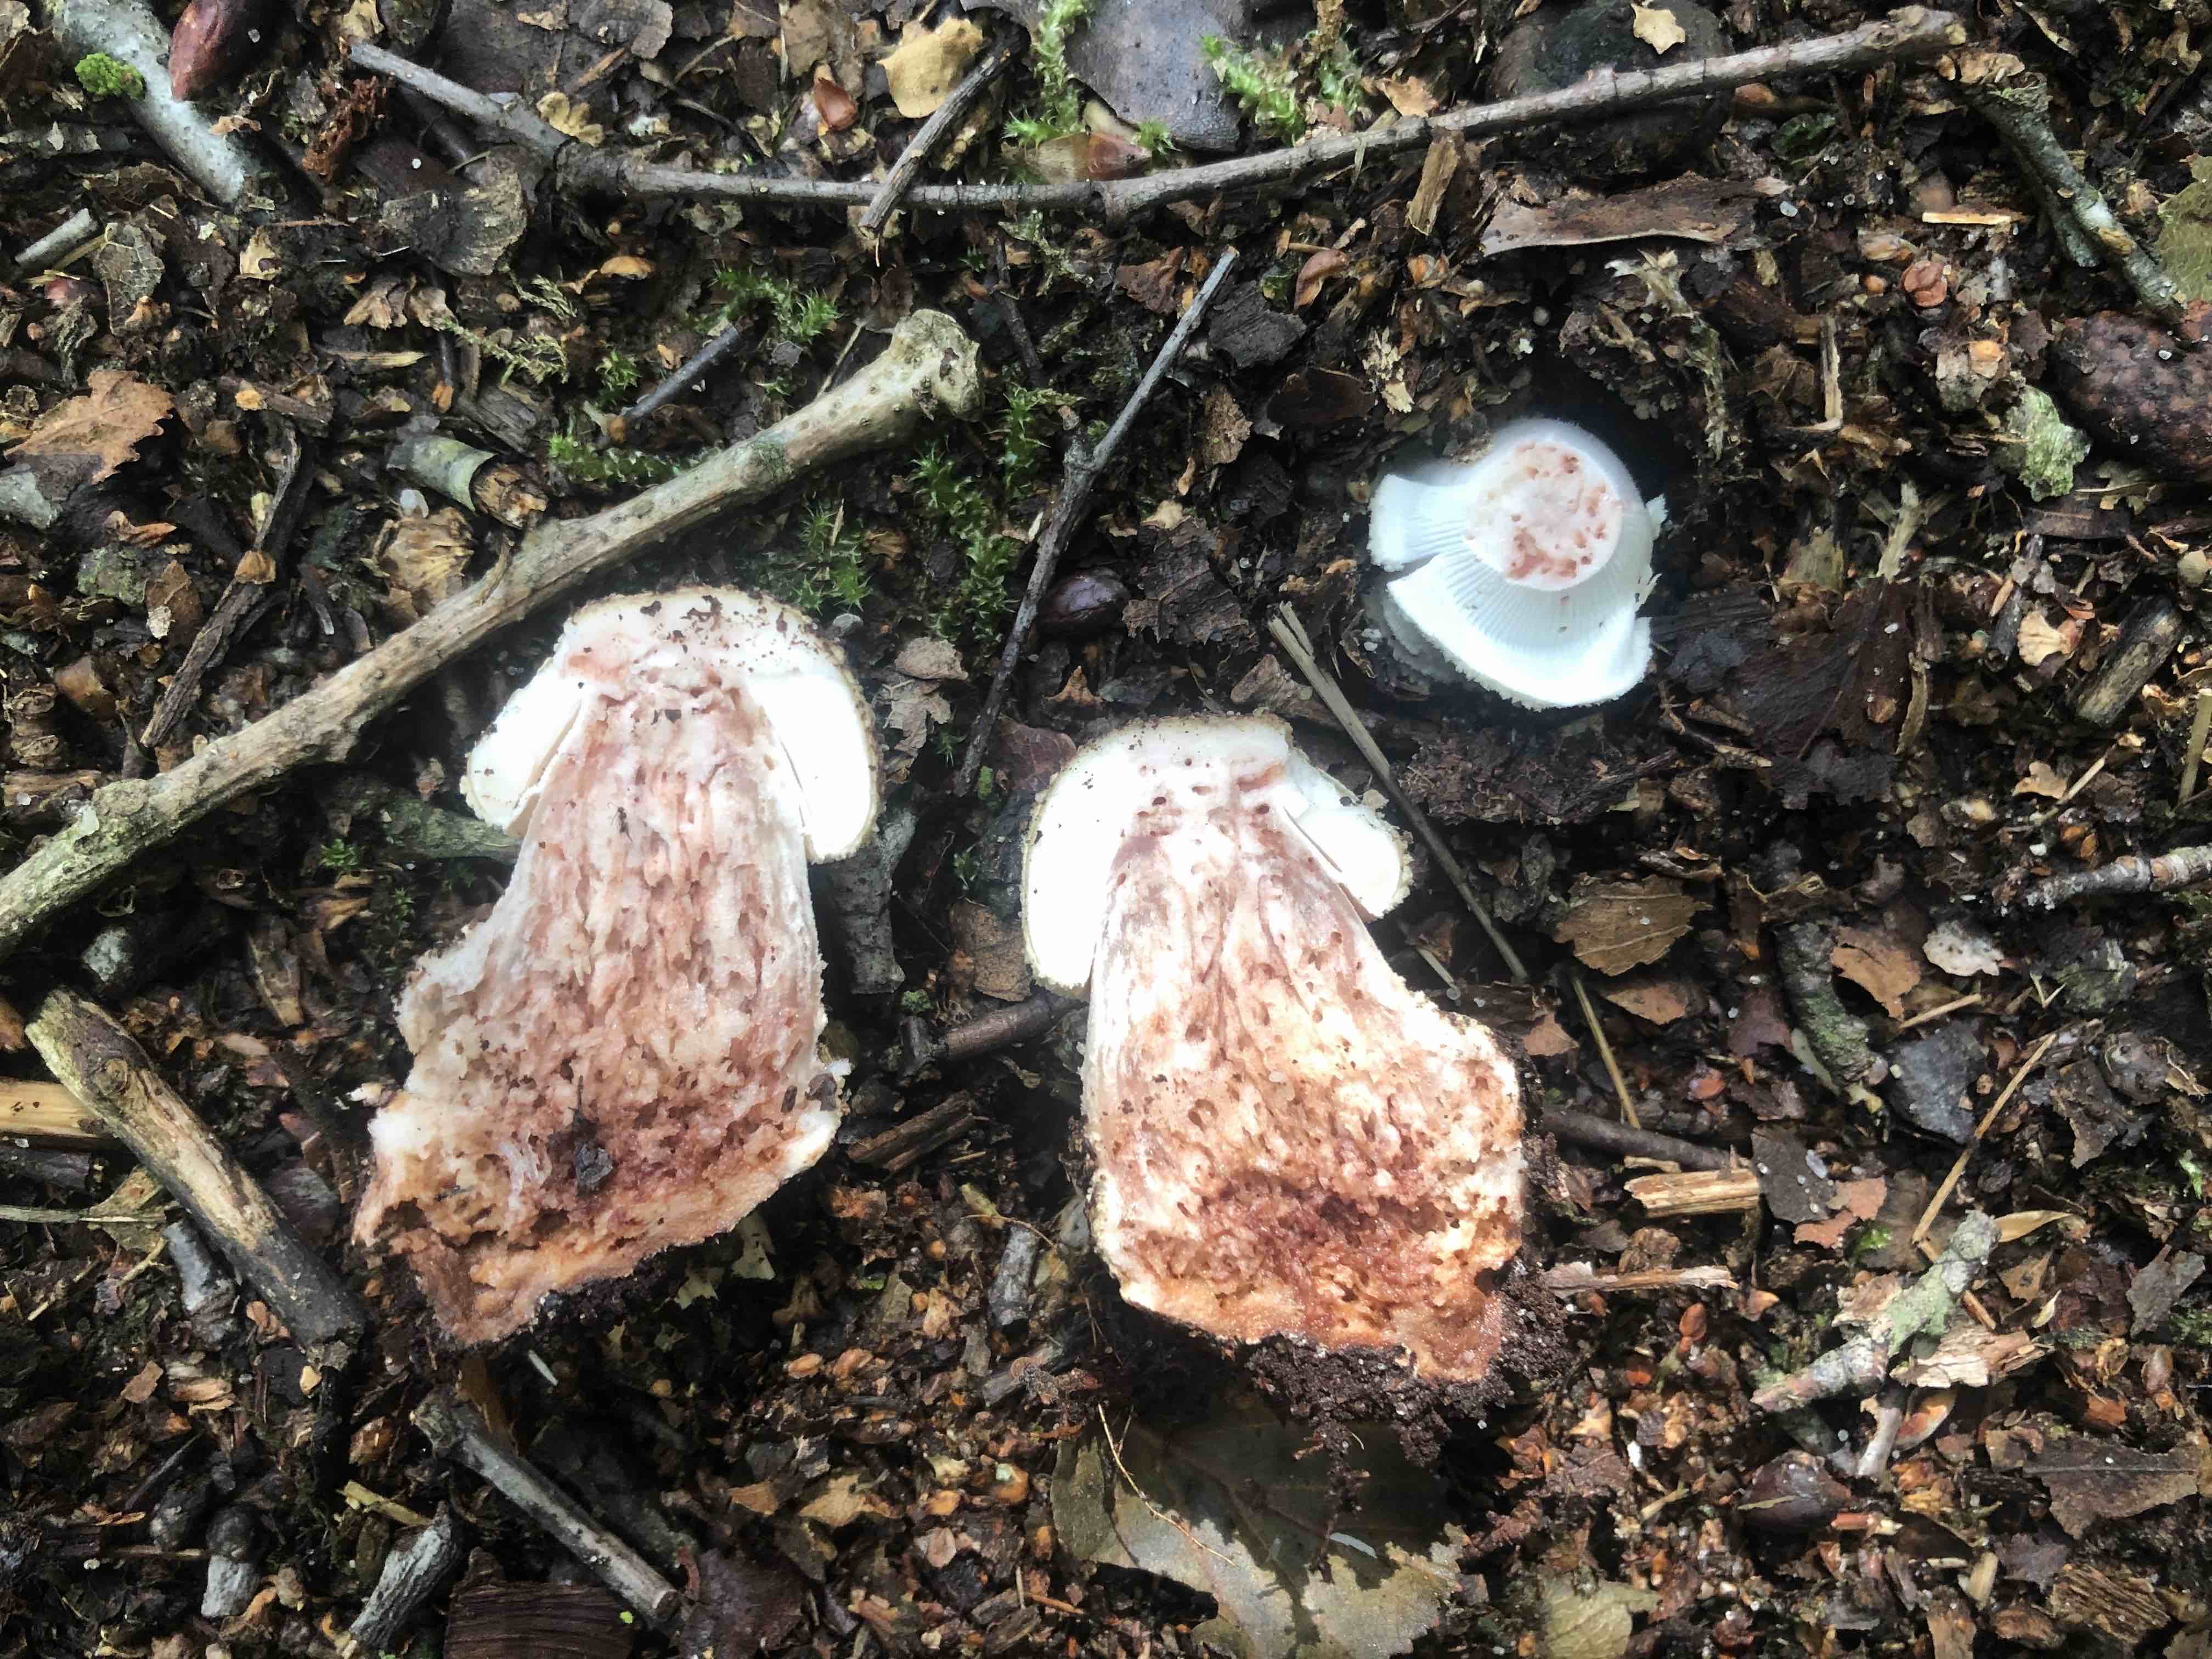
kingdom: Fungi
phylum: Basidiomycota
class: Agaricomycetes
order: Agaricales
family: Amanitaceae
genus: Amanita
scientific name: Amanita rubescens
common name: rødmende fluesvamp
